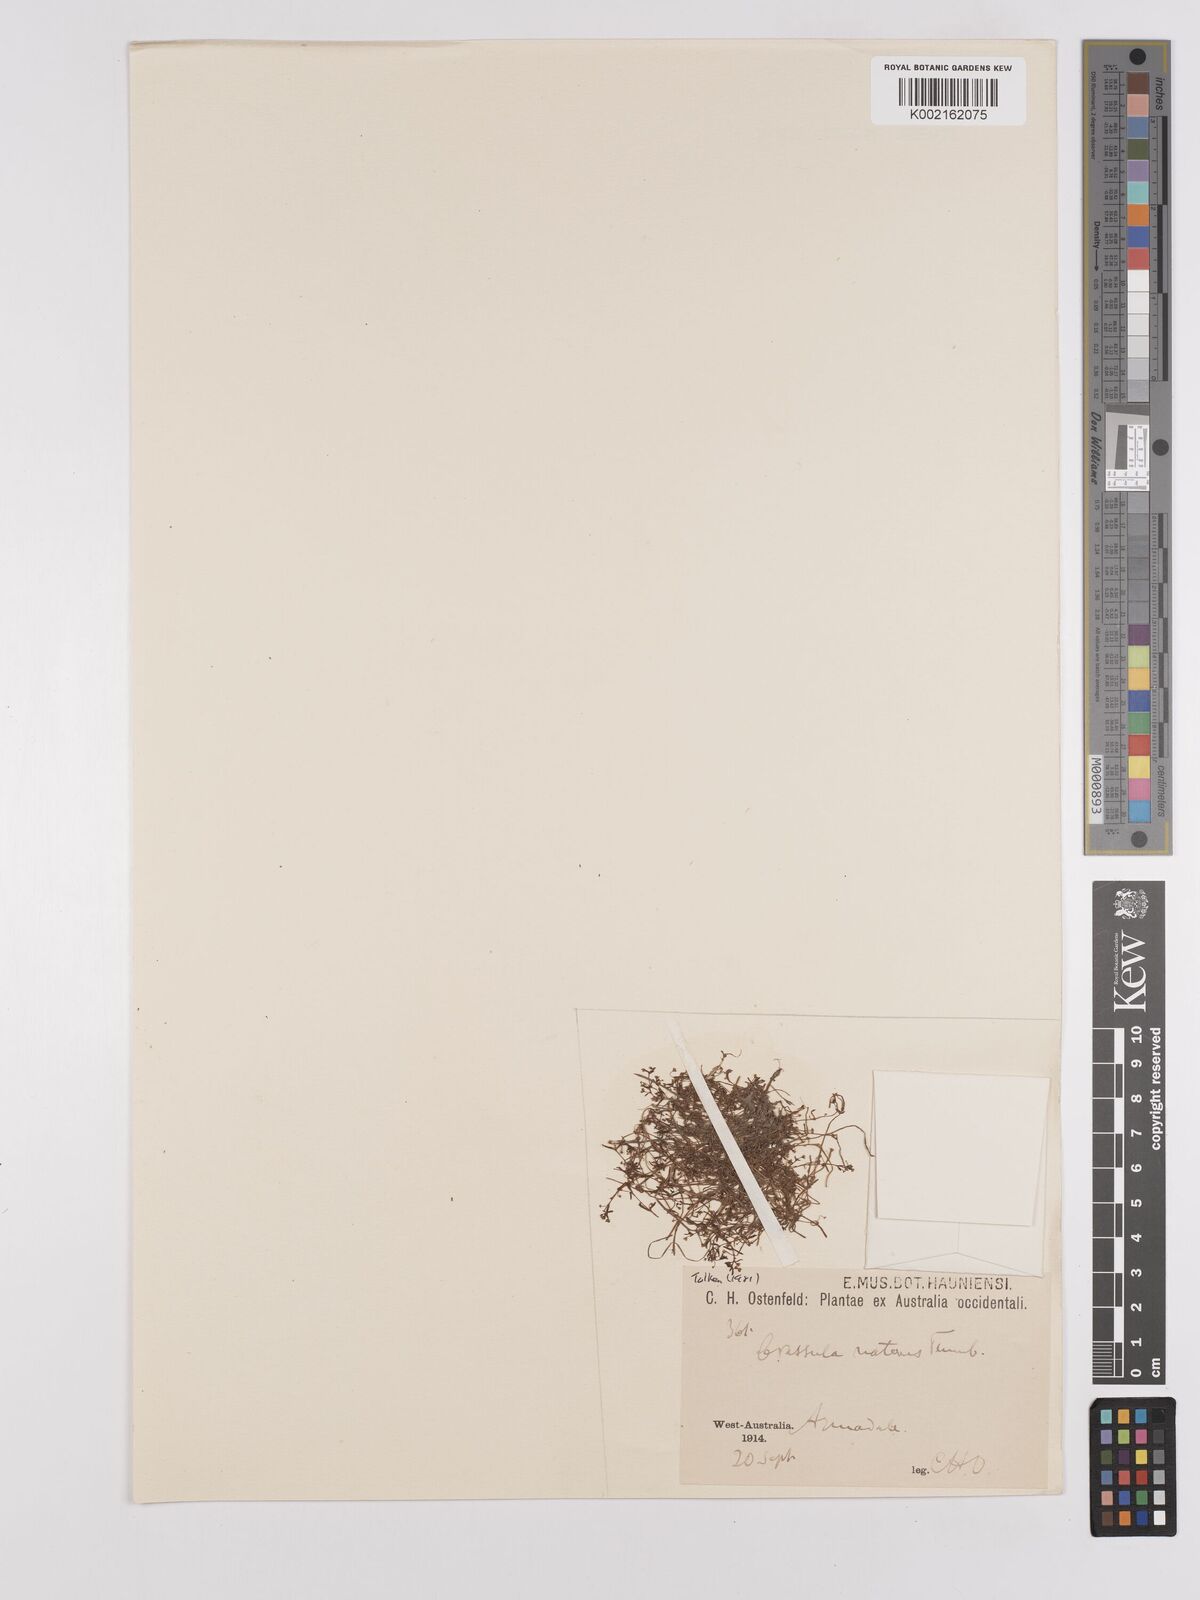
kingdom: Plantae
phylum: Tracheophyta
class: Magnoliopsida
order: Saxifragales
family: Crassulaceae
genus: Crassula
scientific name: Crassula natans
